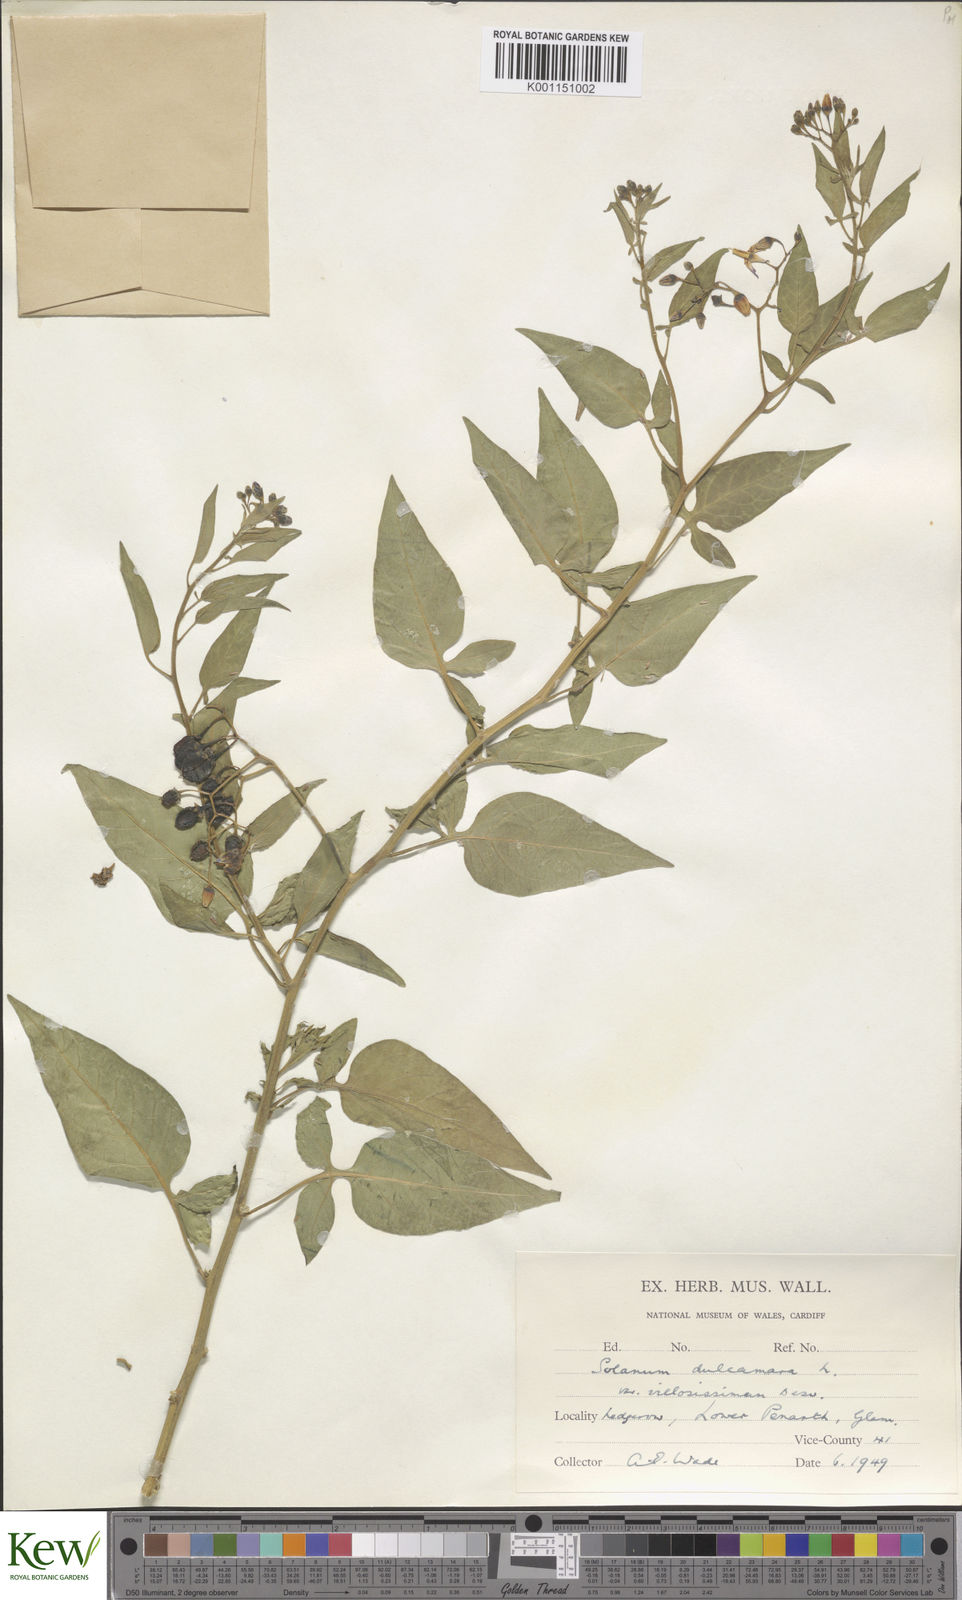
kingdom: Plantae
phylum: Tracheophyta
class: Magnoliopsida
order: Solanales
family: Solanaceae
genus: Solanum
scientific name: Solanum dulcamara
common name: Climbing nightshade
